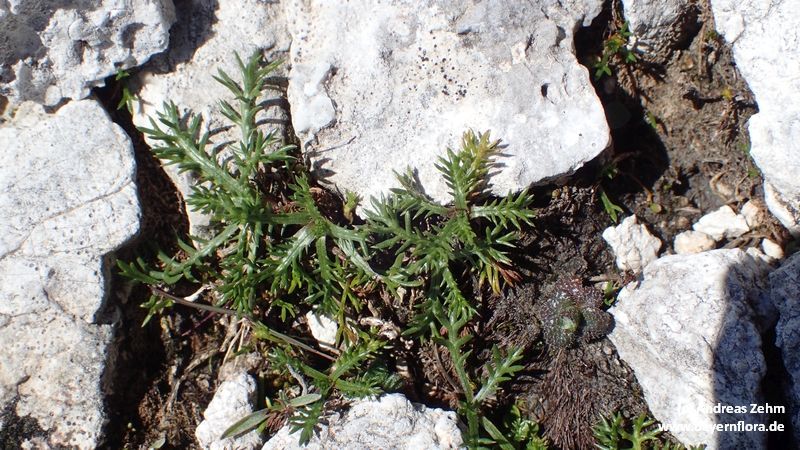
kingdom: Plantae
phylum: Tracheophyta
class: Magnoliopsida
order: Asterales
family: Asteraceae
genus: Achillea
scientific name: Achillea atrata
